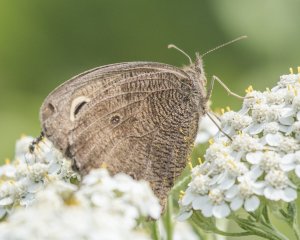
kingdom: Animalia
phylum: Arthropoda
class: Insecta
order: Lepidoptera
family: Nymphalidae
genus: Cercyonis
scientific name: Cercyonis pegala
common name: Common Wood-Nymph
